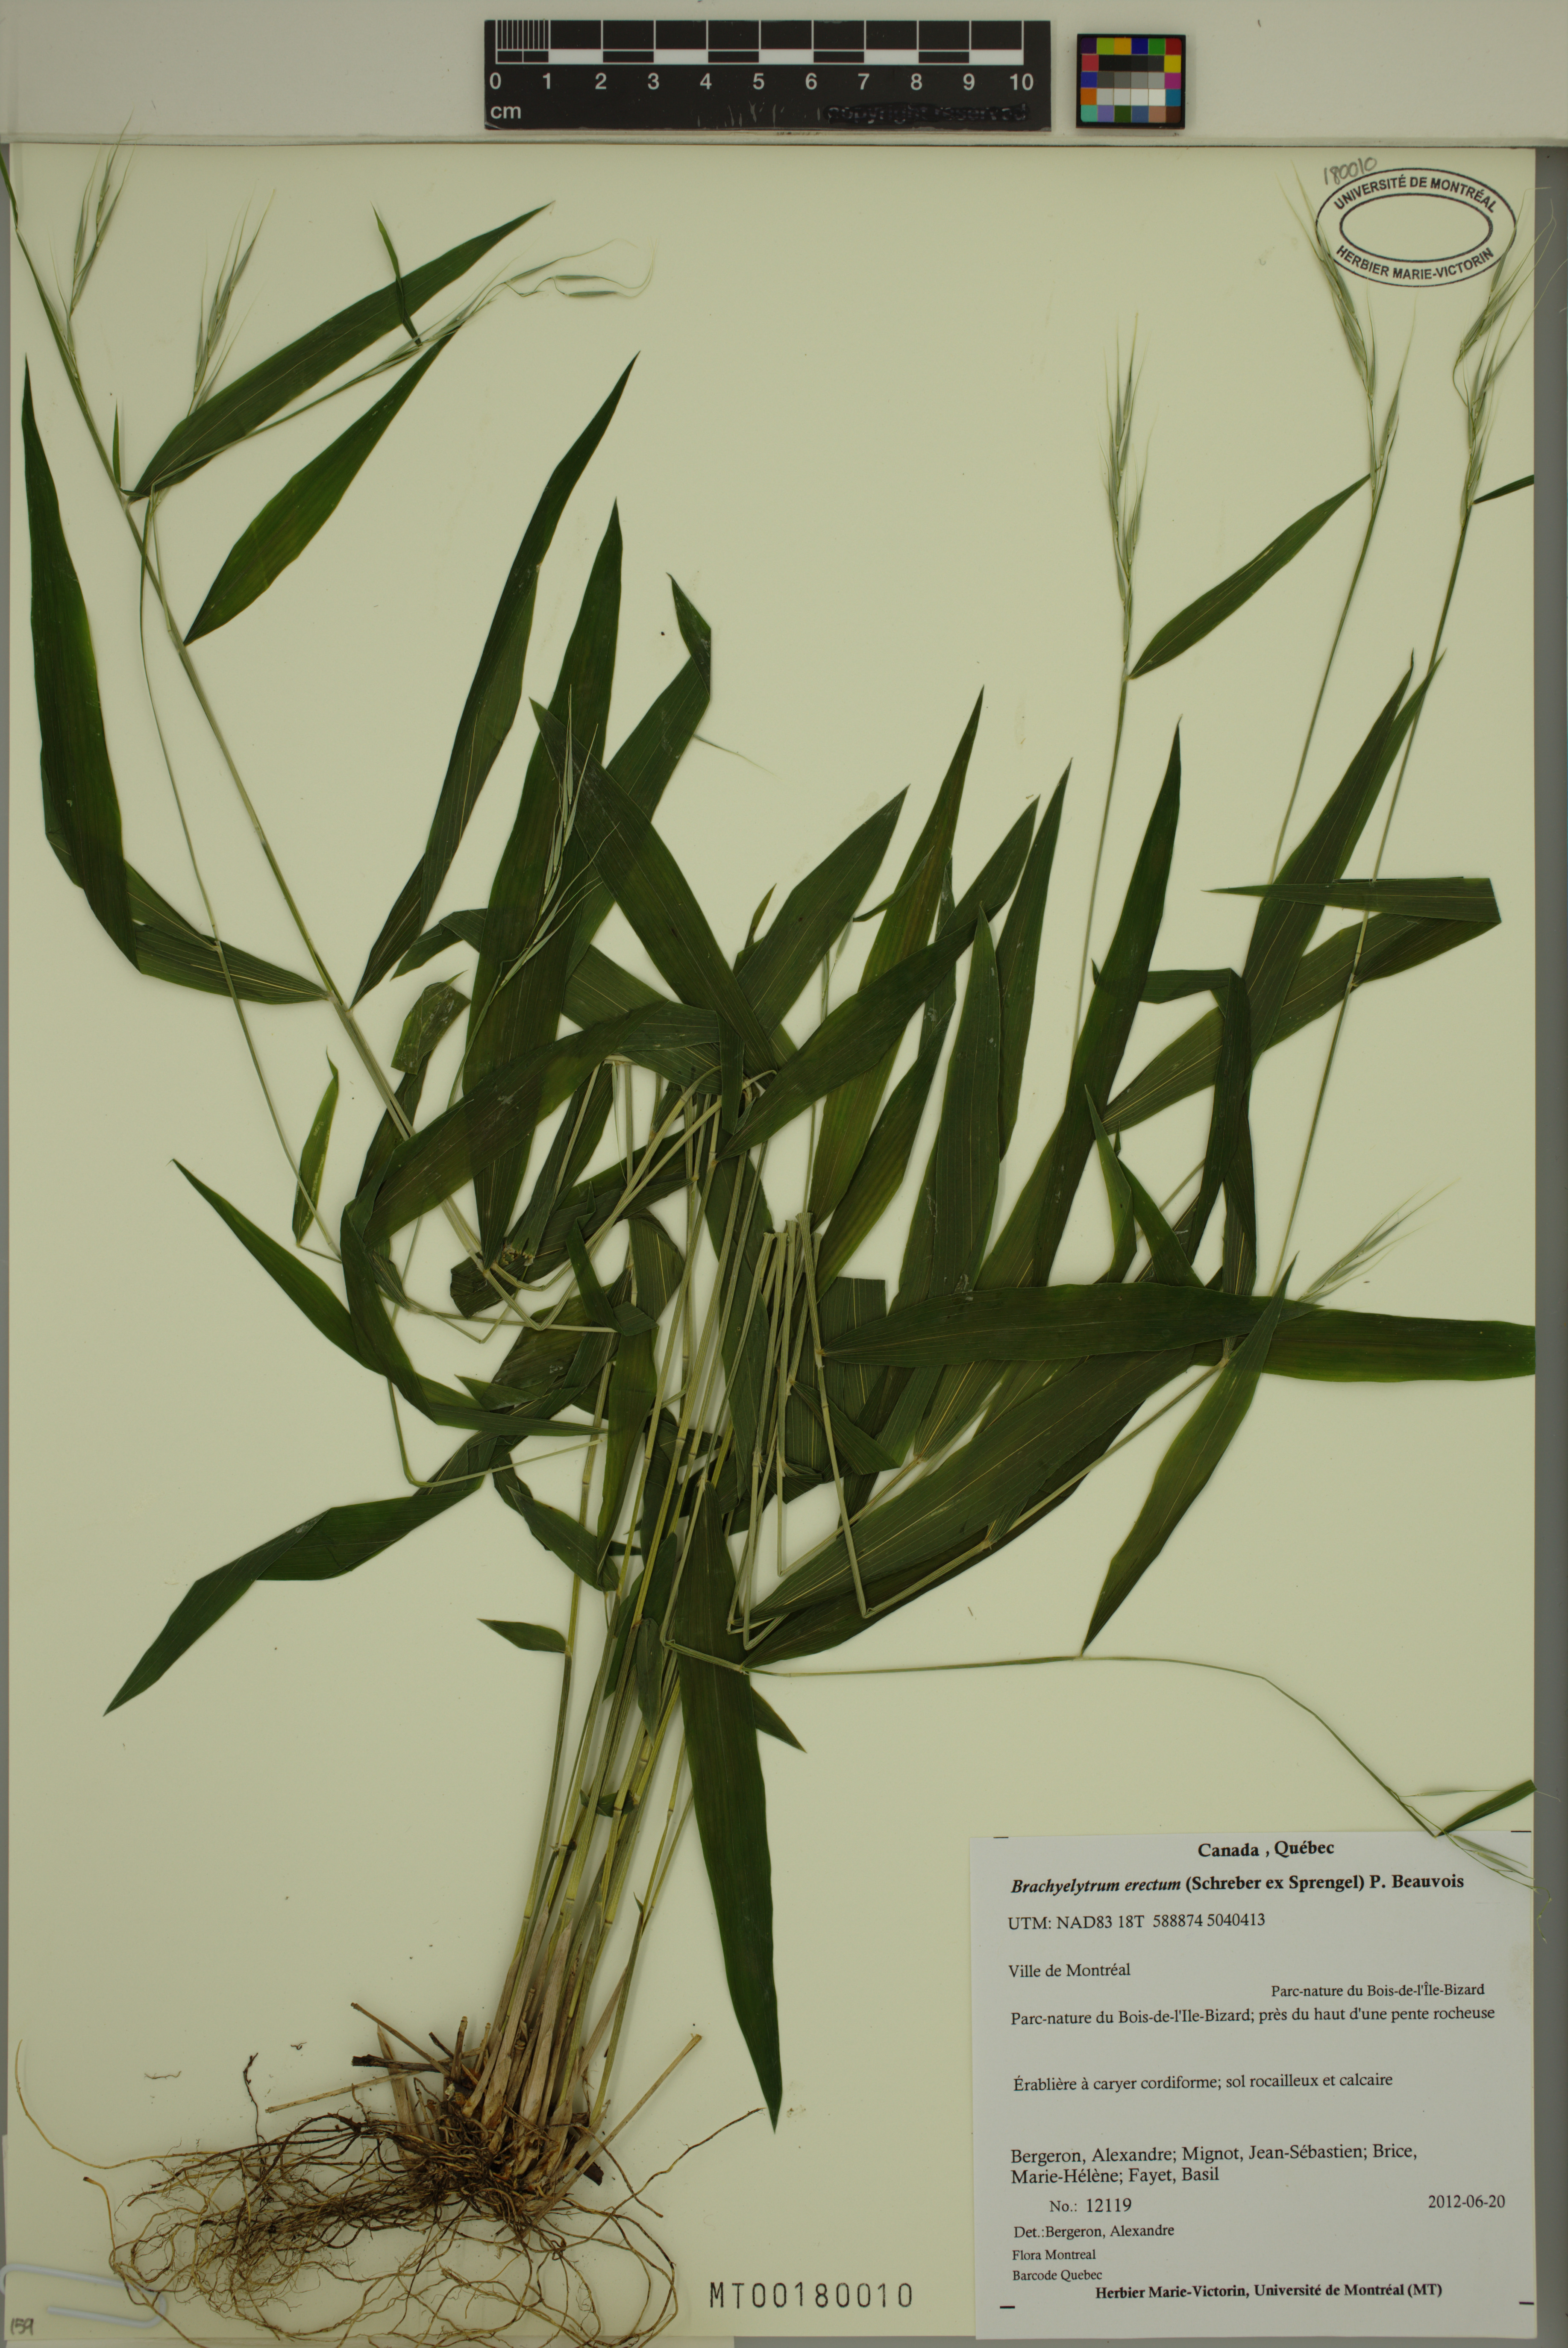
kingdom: Plantae
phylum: Tracheophyta
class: Liliopsida
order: Poales
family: Poaceae
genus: Brachyelytrum
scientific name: Brachyelytrum erectum
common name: Bearded shorthusk
